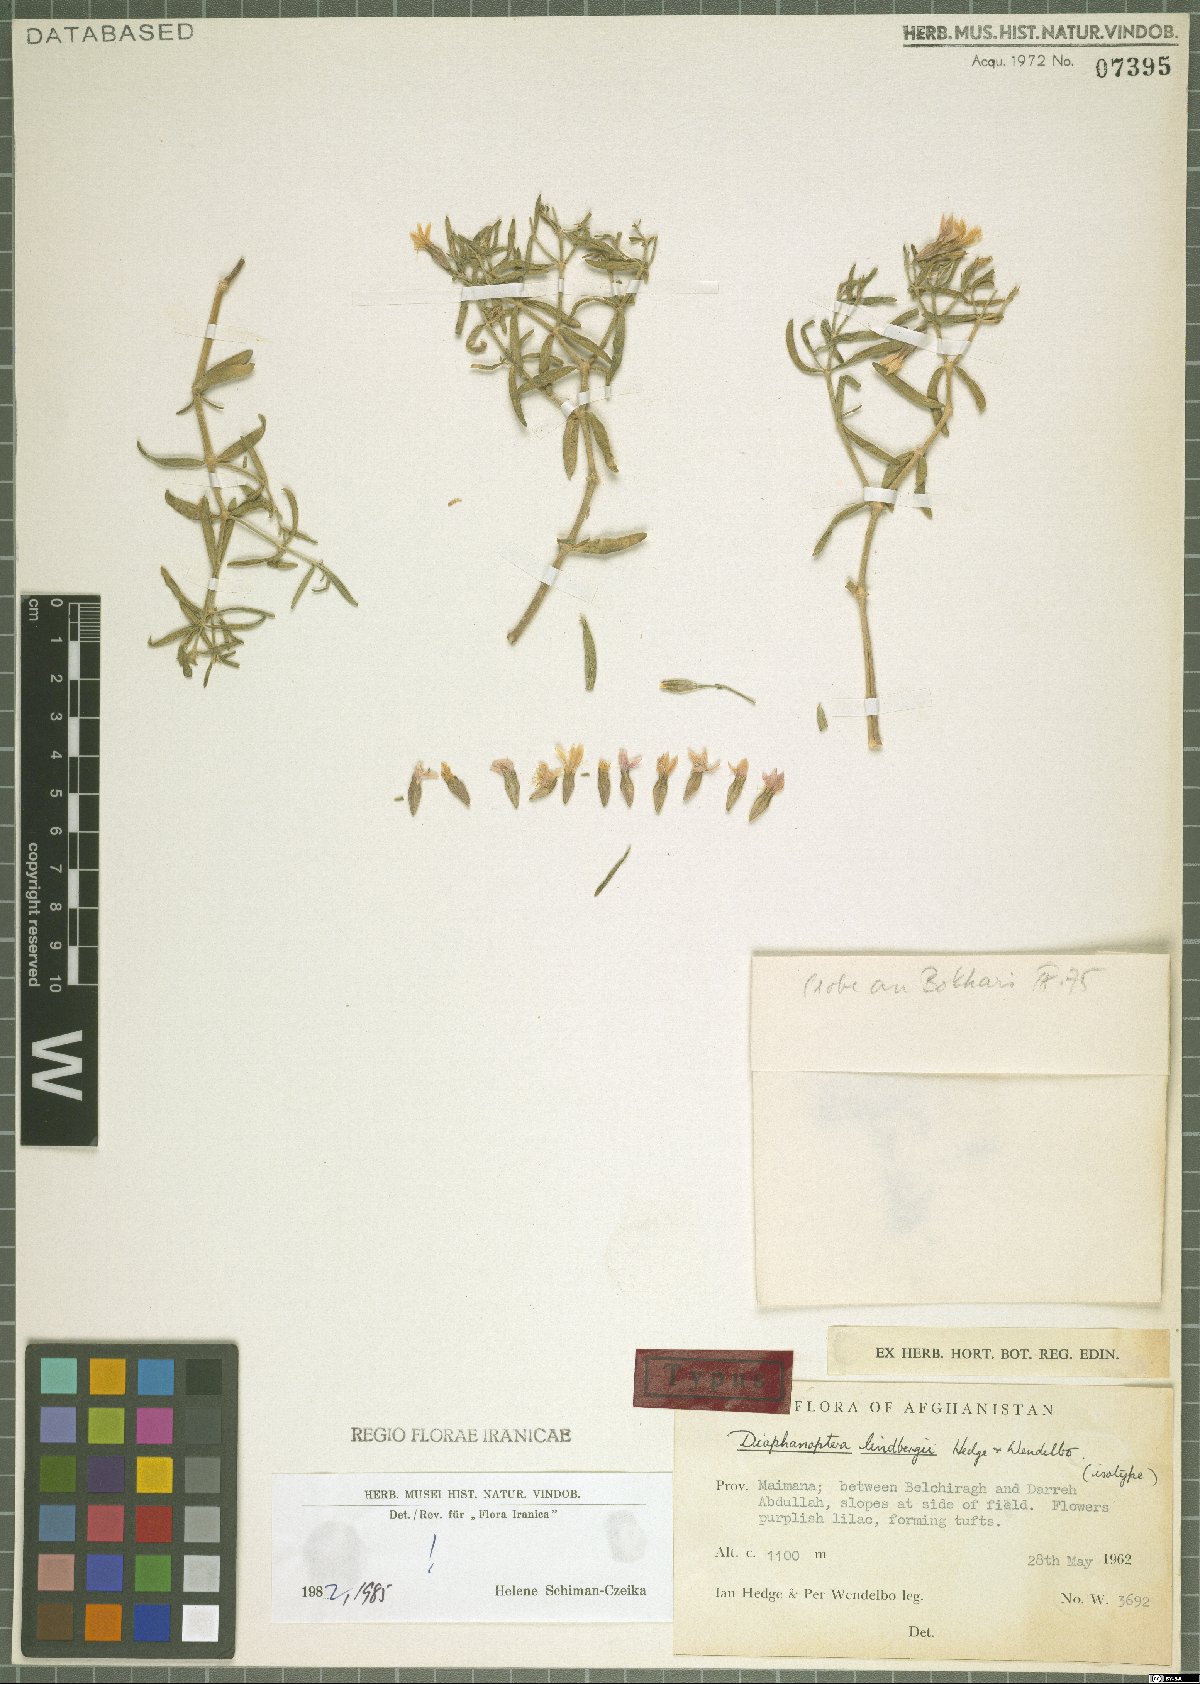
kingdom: Plantae
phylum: Tracheophyta
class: Magnoliopsida
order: Caryophyllales
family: Caryophyllaceae
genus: Acanthophyllum
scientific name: Acanthophyllum lindbergii
